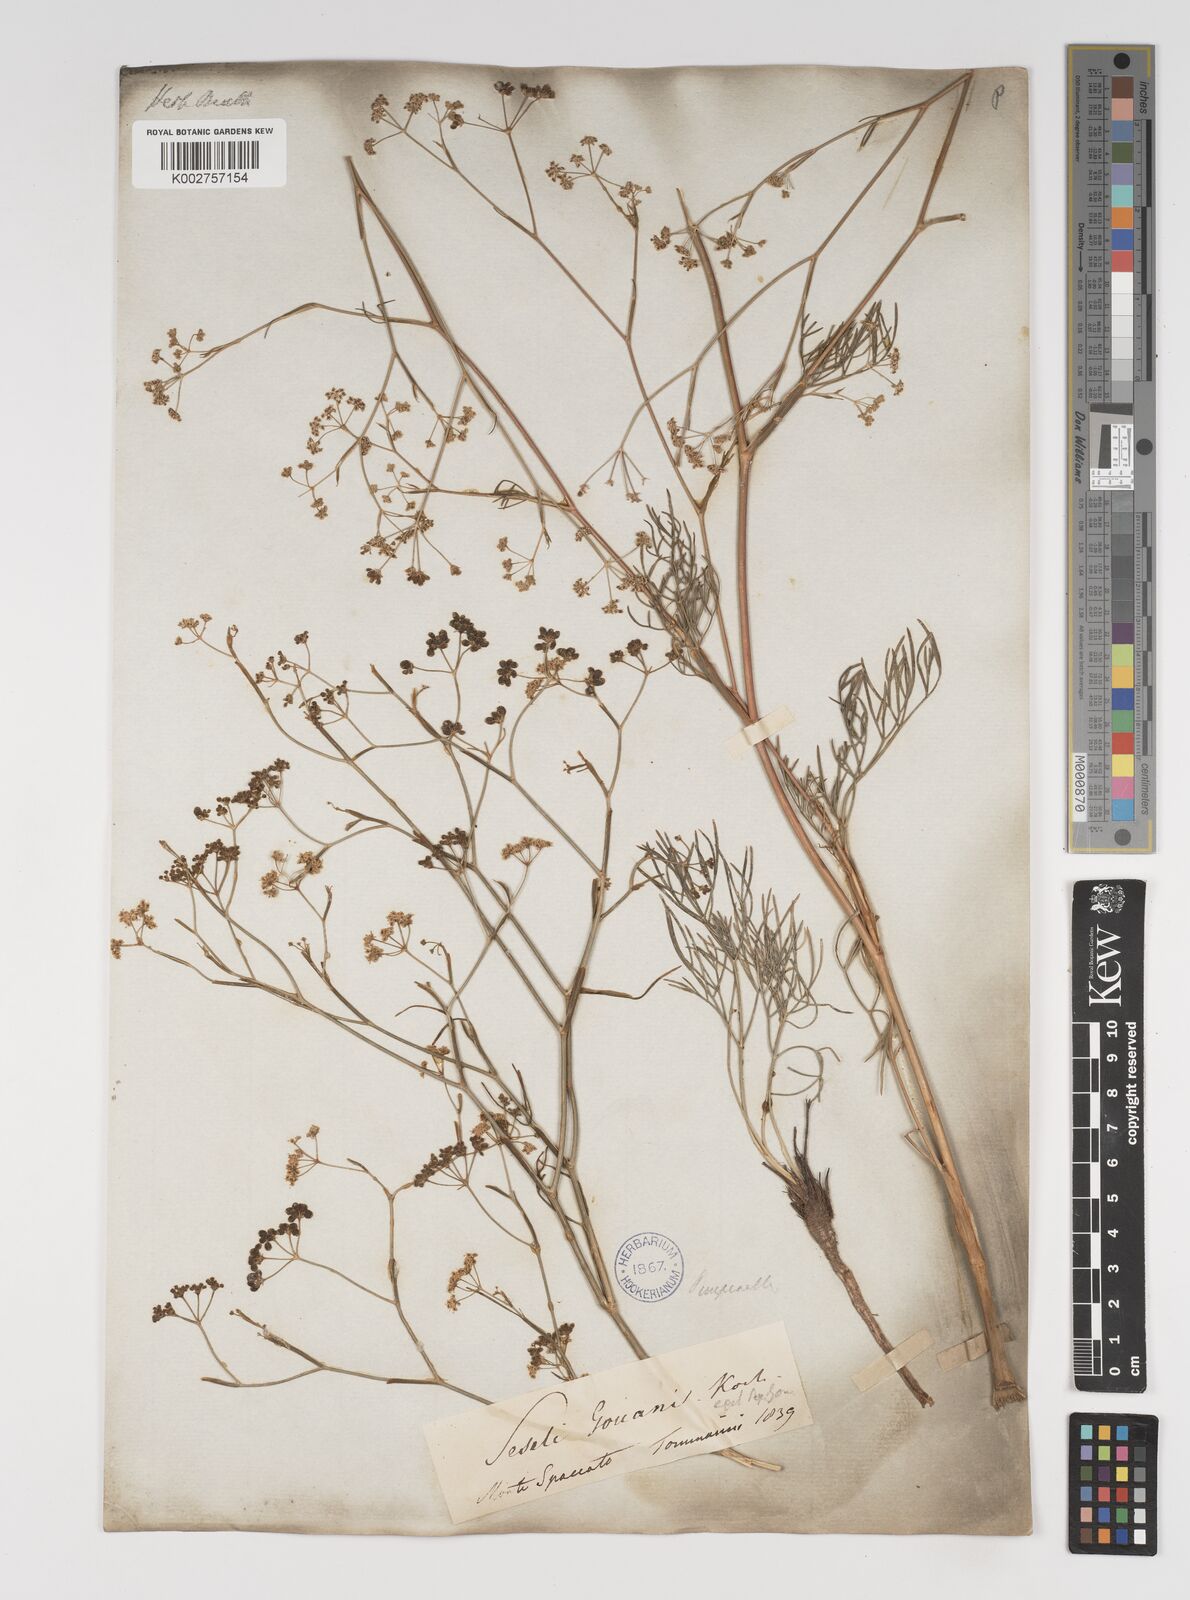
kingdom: Plantae
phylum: Tracheophyta
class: Magnoliopsida
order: Apiales
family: Apiaceae
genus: Seseli
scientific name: Seseli longifolium
